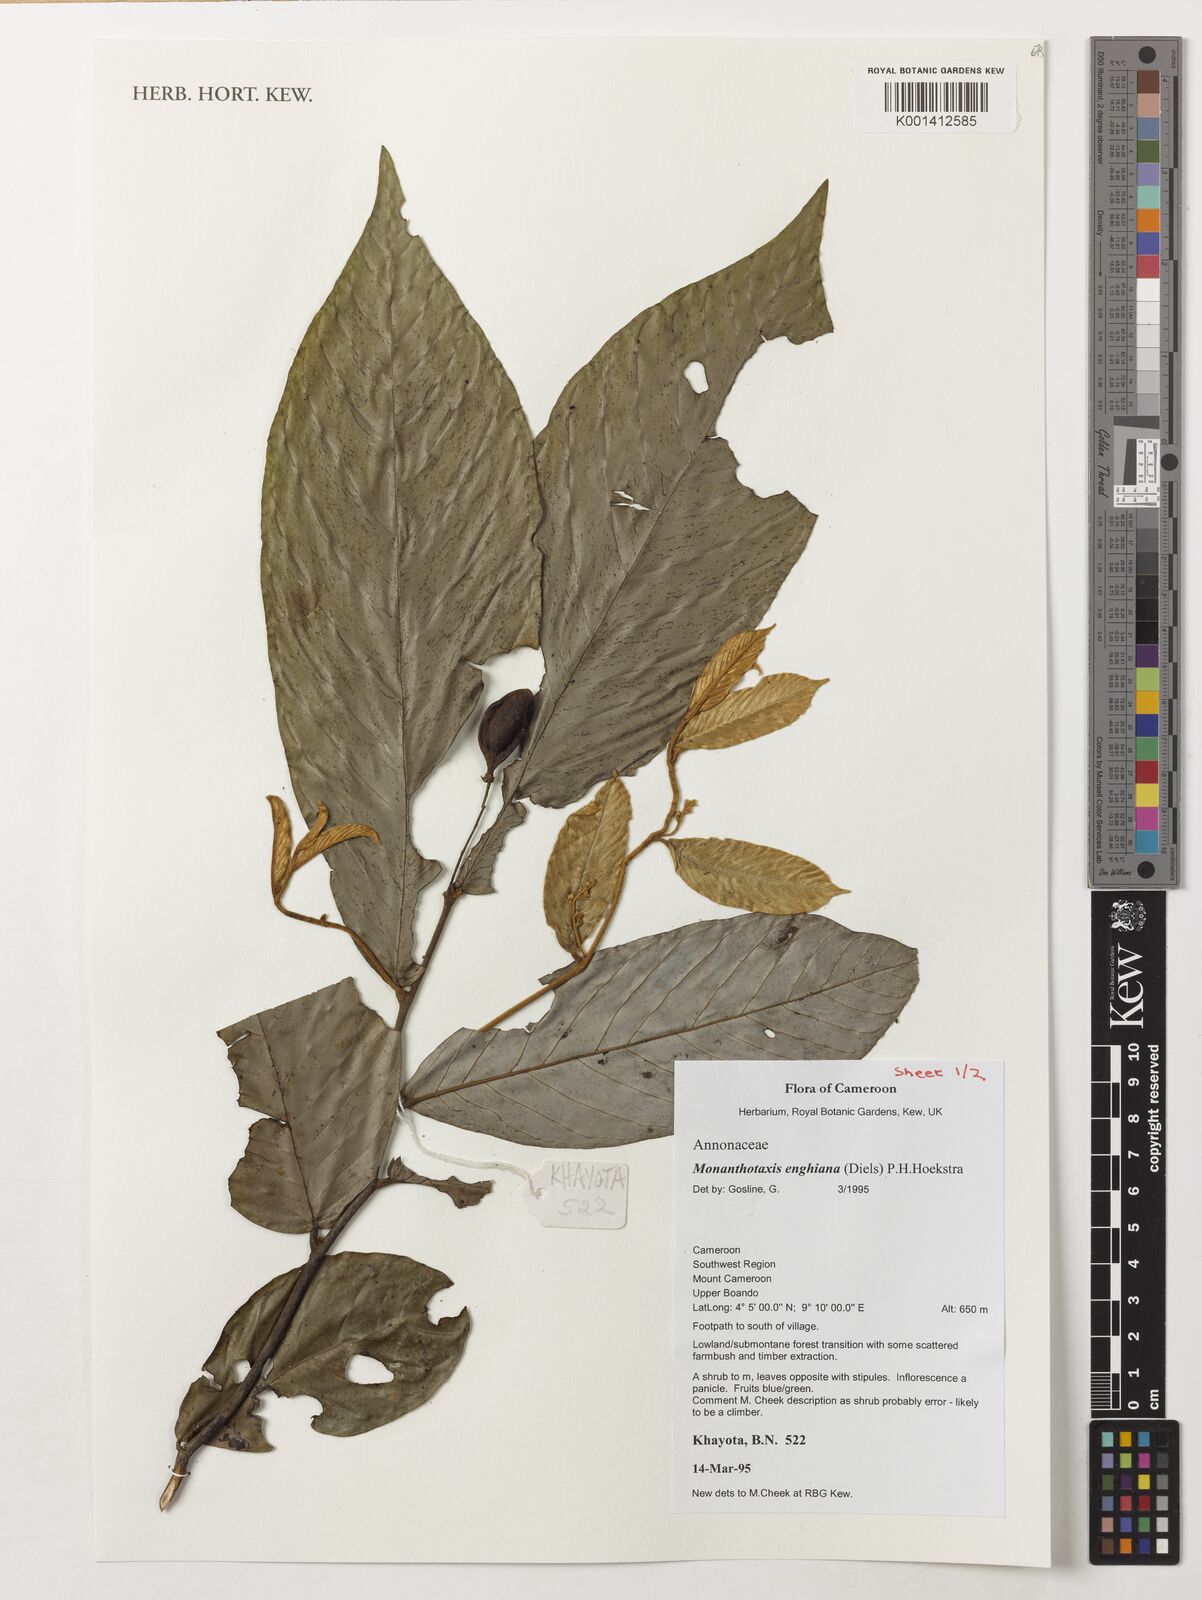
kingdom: Plantae
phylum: Tracheophyta
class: Magnoliopsida
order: Magnoliales
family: Annonaceae
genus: Friesodielsia
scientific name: Friesodielsia enghiana
